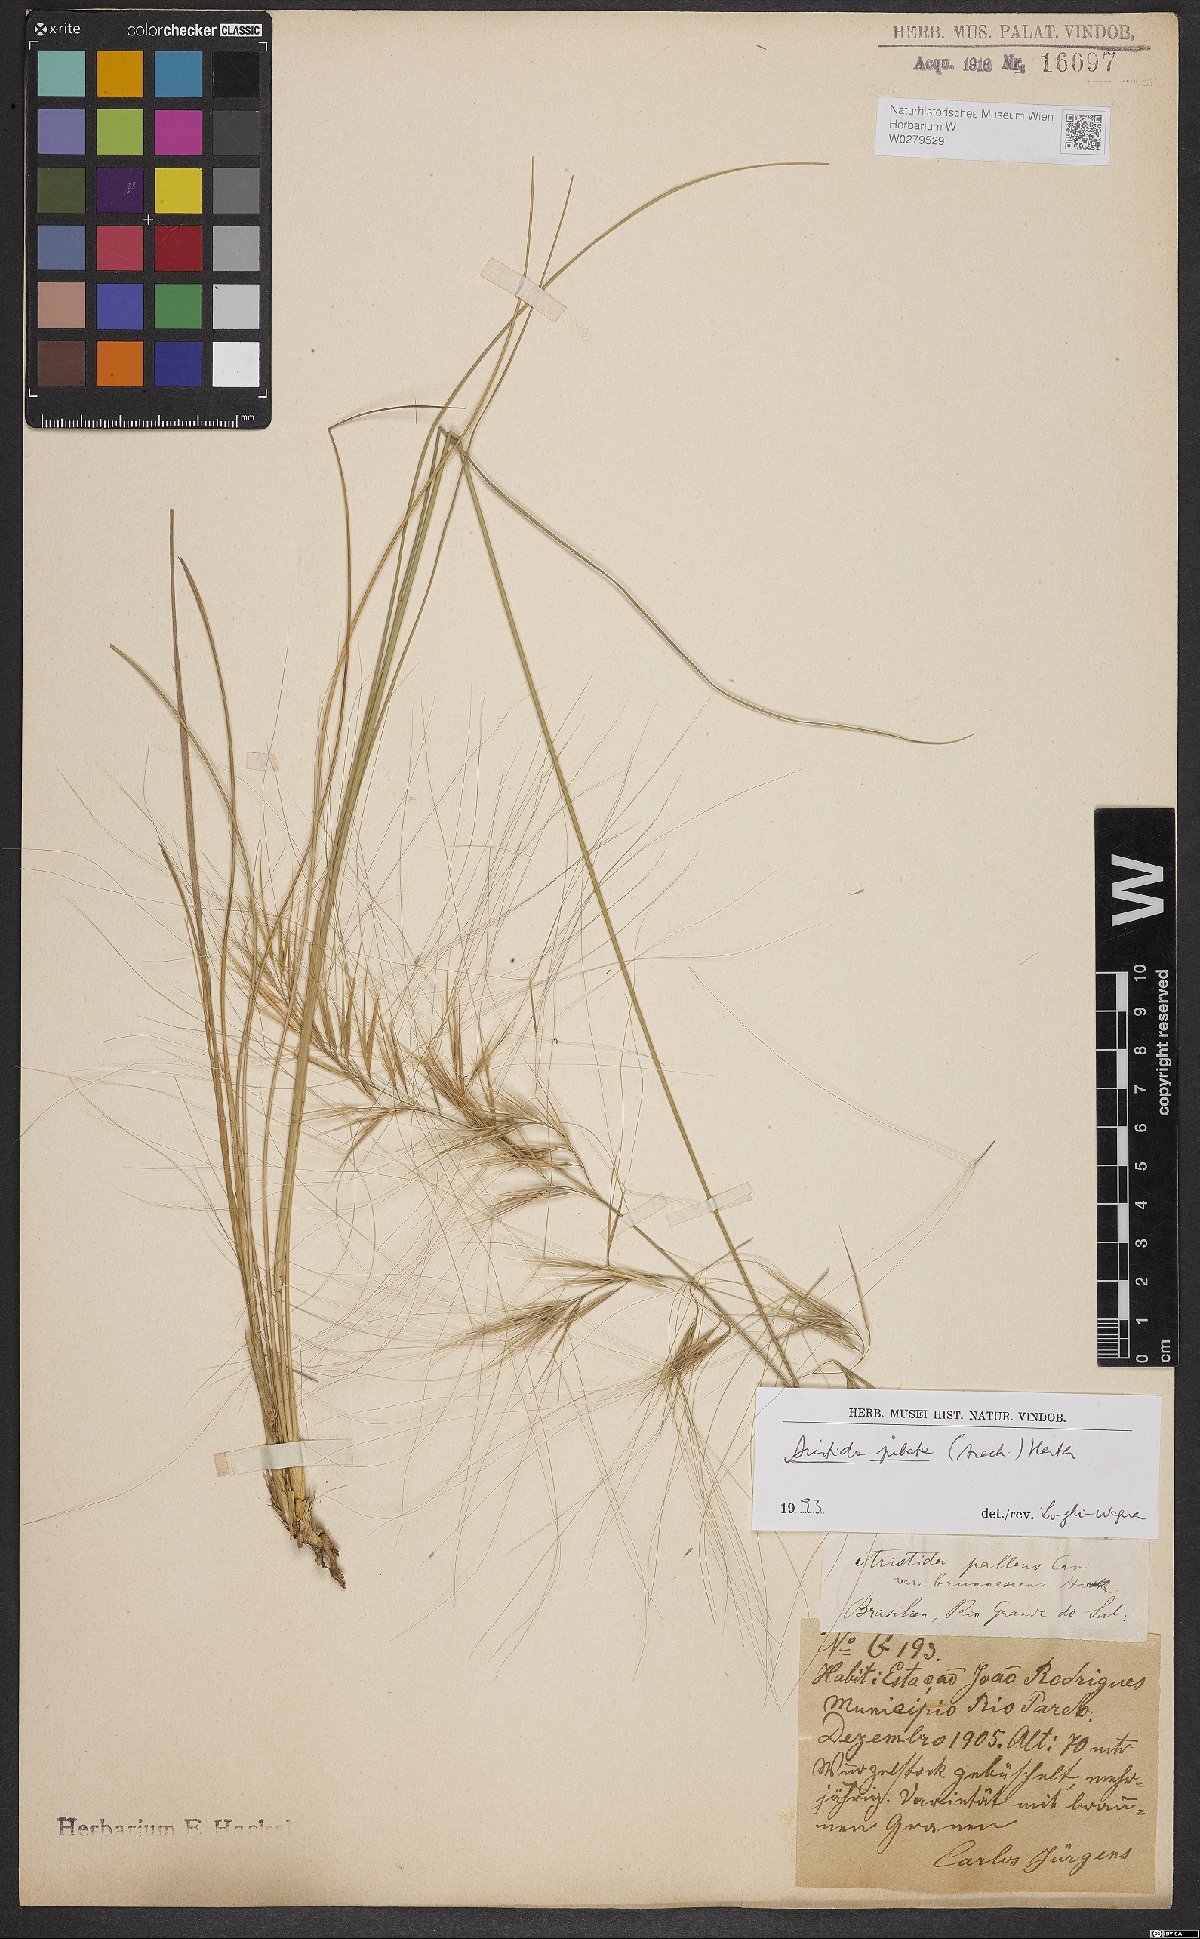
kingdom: Plantae
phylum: Tracheophyta
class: Liliopsida
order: Poales
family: Poaceae
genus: Aristida
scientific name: Aristida jubata
